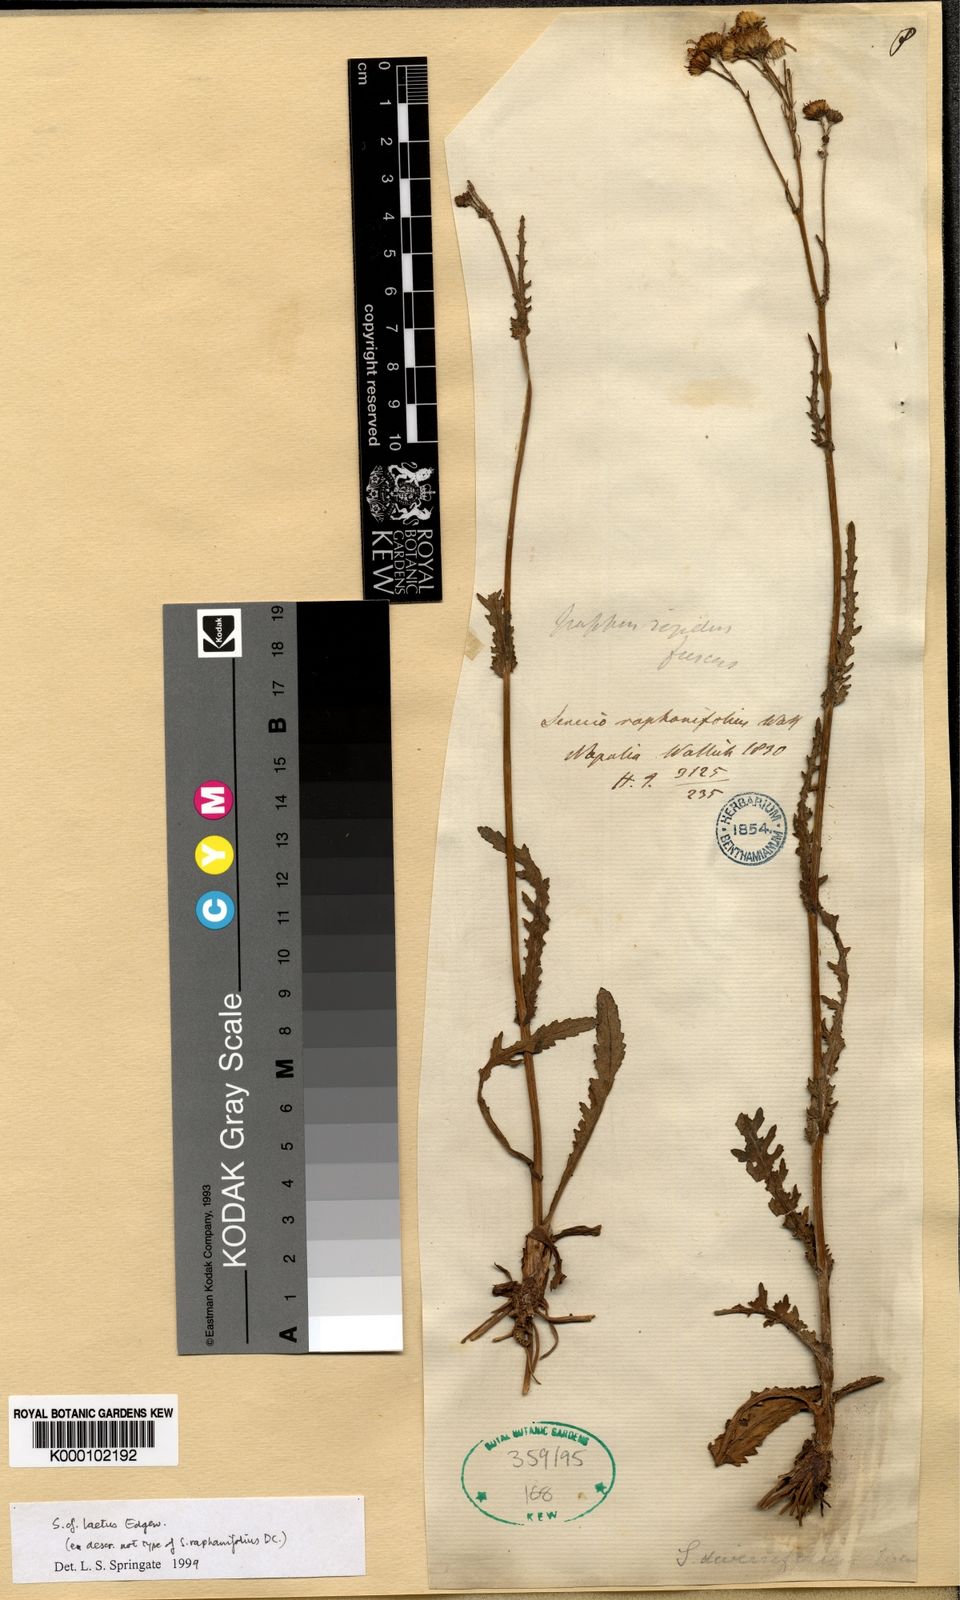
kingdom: Plantae
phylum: Tracheophyta
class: Magnoliopsida
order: Asterales
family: Asteraceae
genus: Senecio
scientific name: Senecio doria
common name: Golden ragwort
